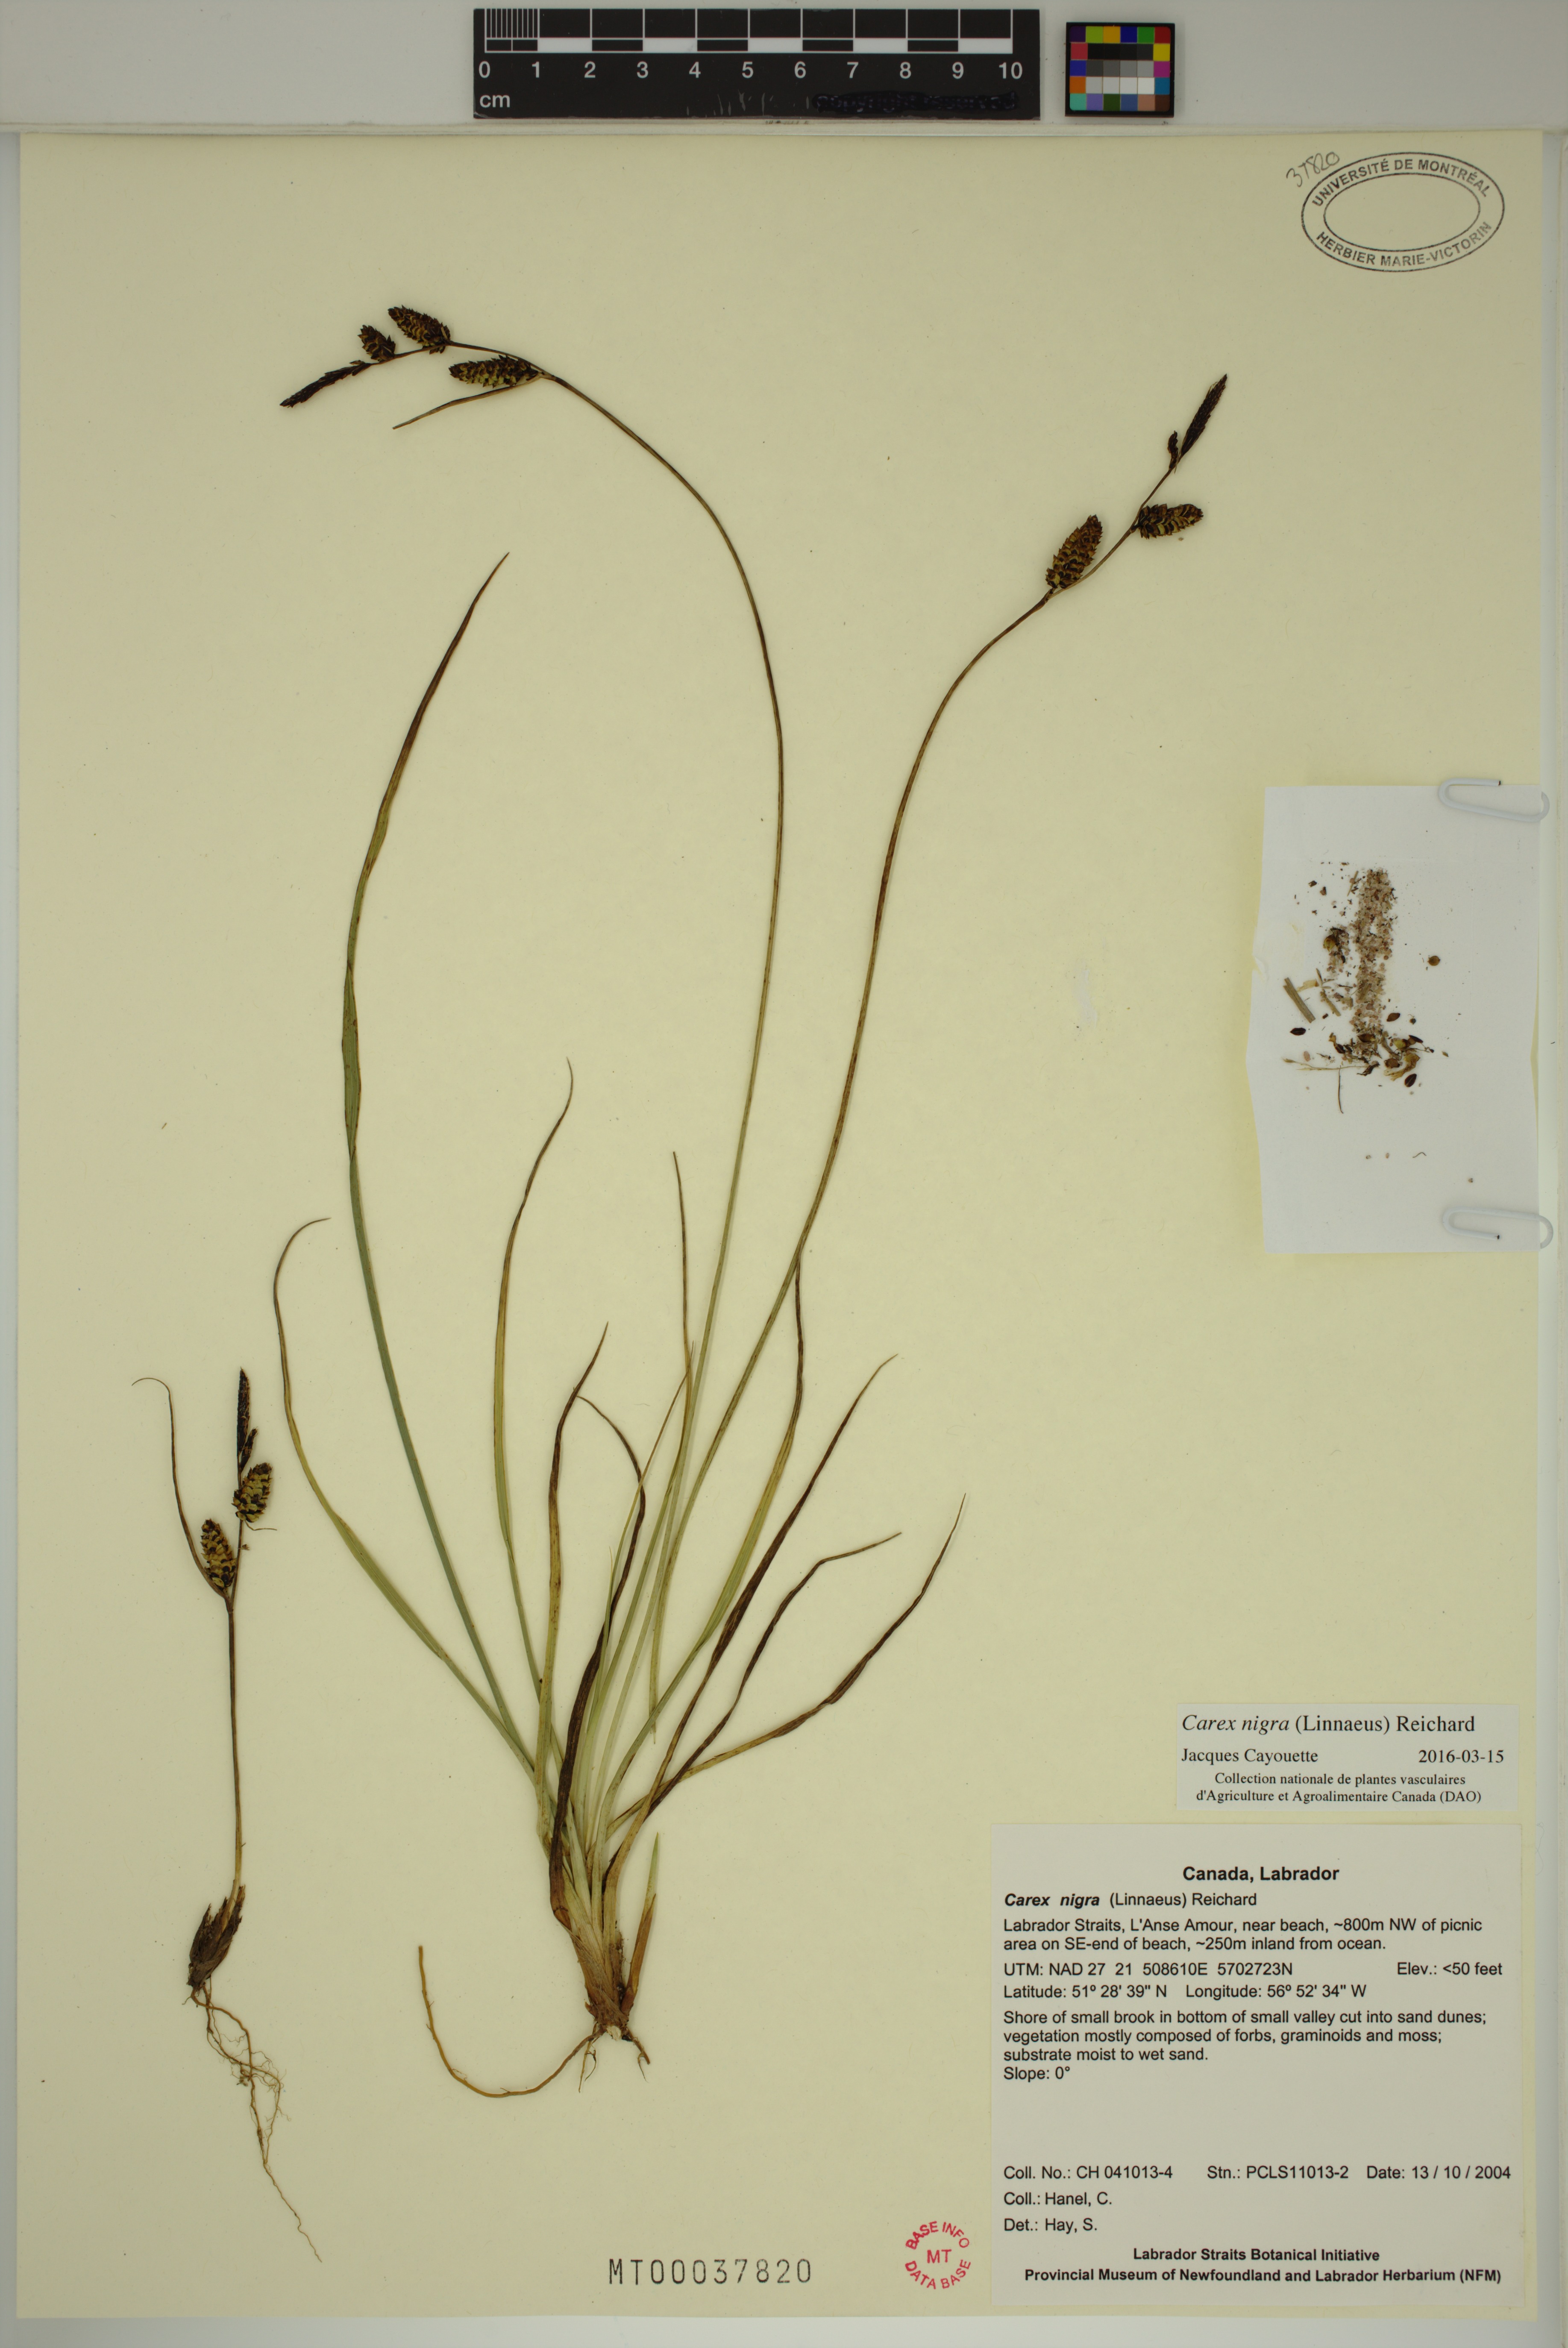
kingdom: Plantae
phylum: Tracheophyta
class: Liliopsida
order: Poales
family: Cyperaceae
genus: Carex
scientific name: Carex nigra
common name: Common sedge
